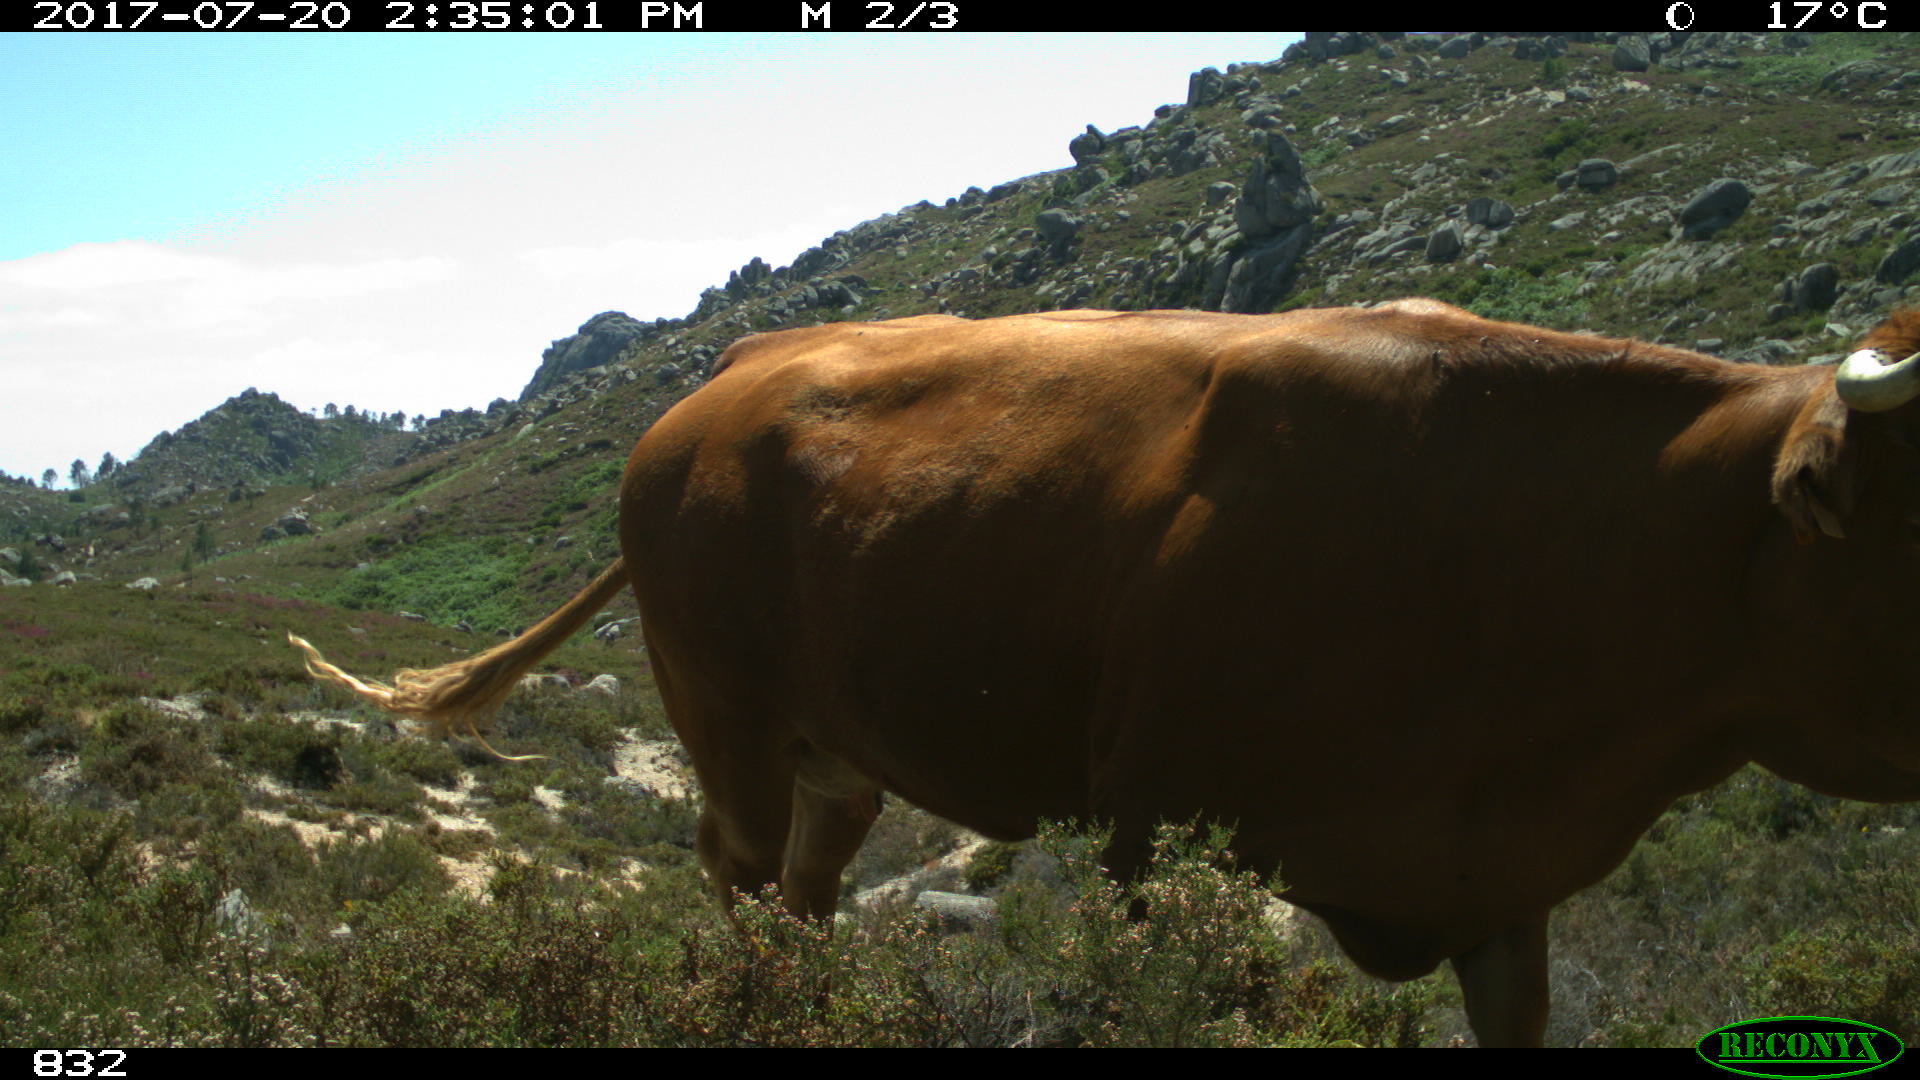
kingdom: Animalia
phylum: Chordata
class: Mammalia
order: Artiodactyla
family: Bovidae
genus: Bos
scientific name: Bos taurus
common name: Domesticated cattle
